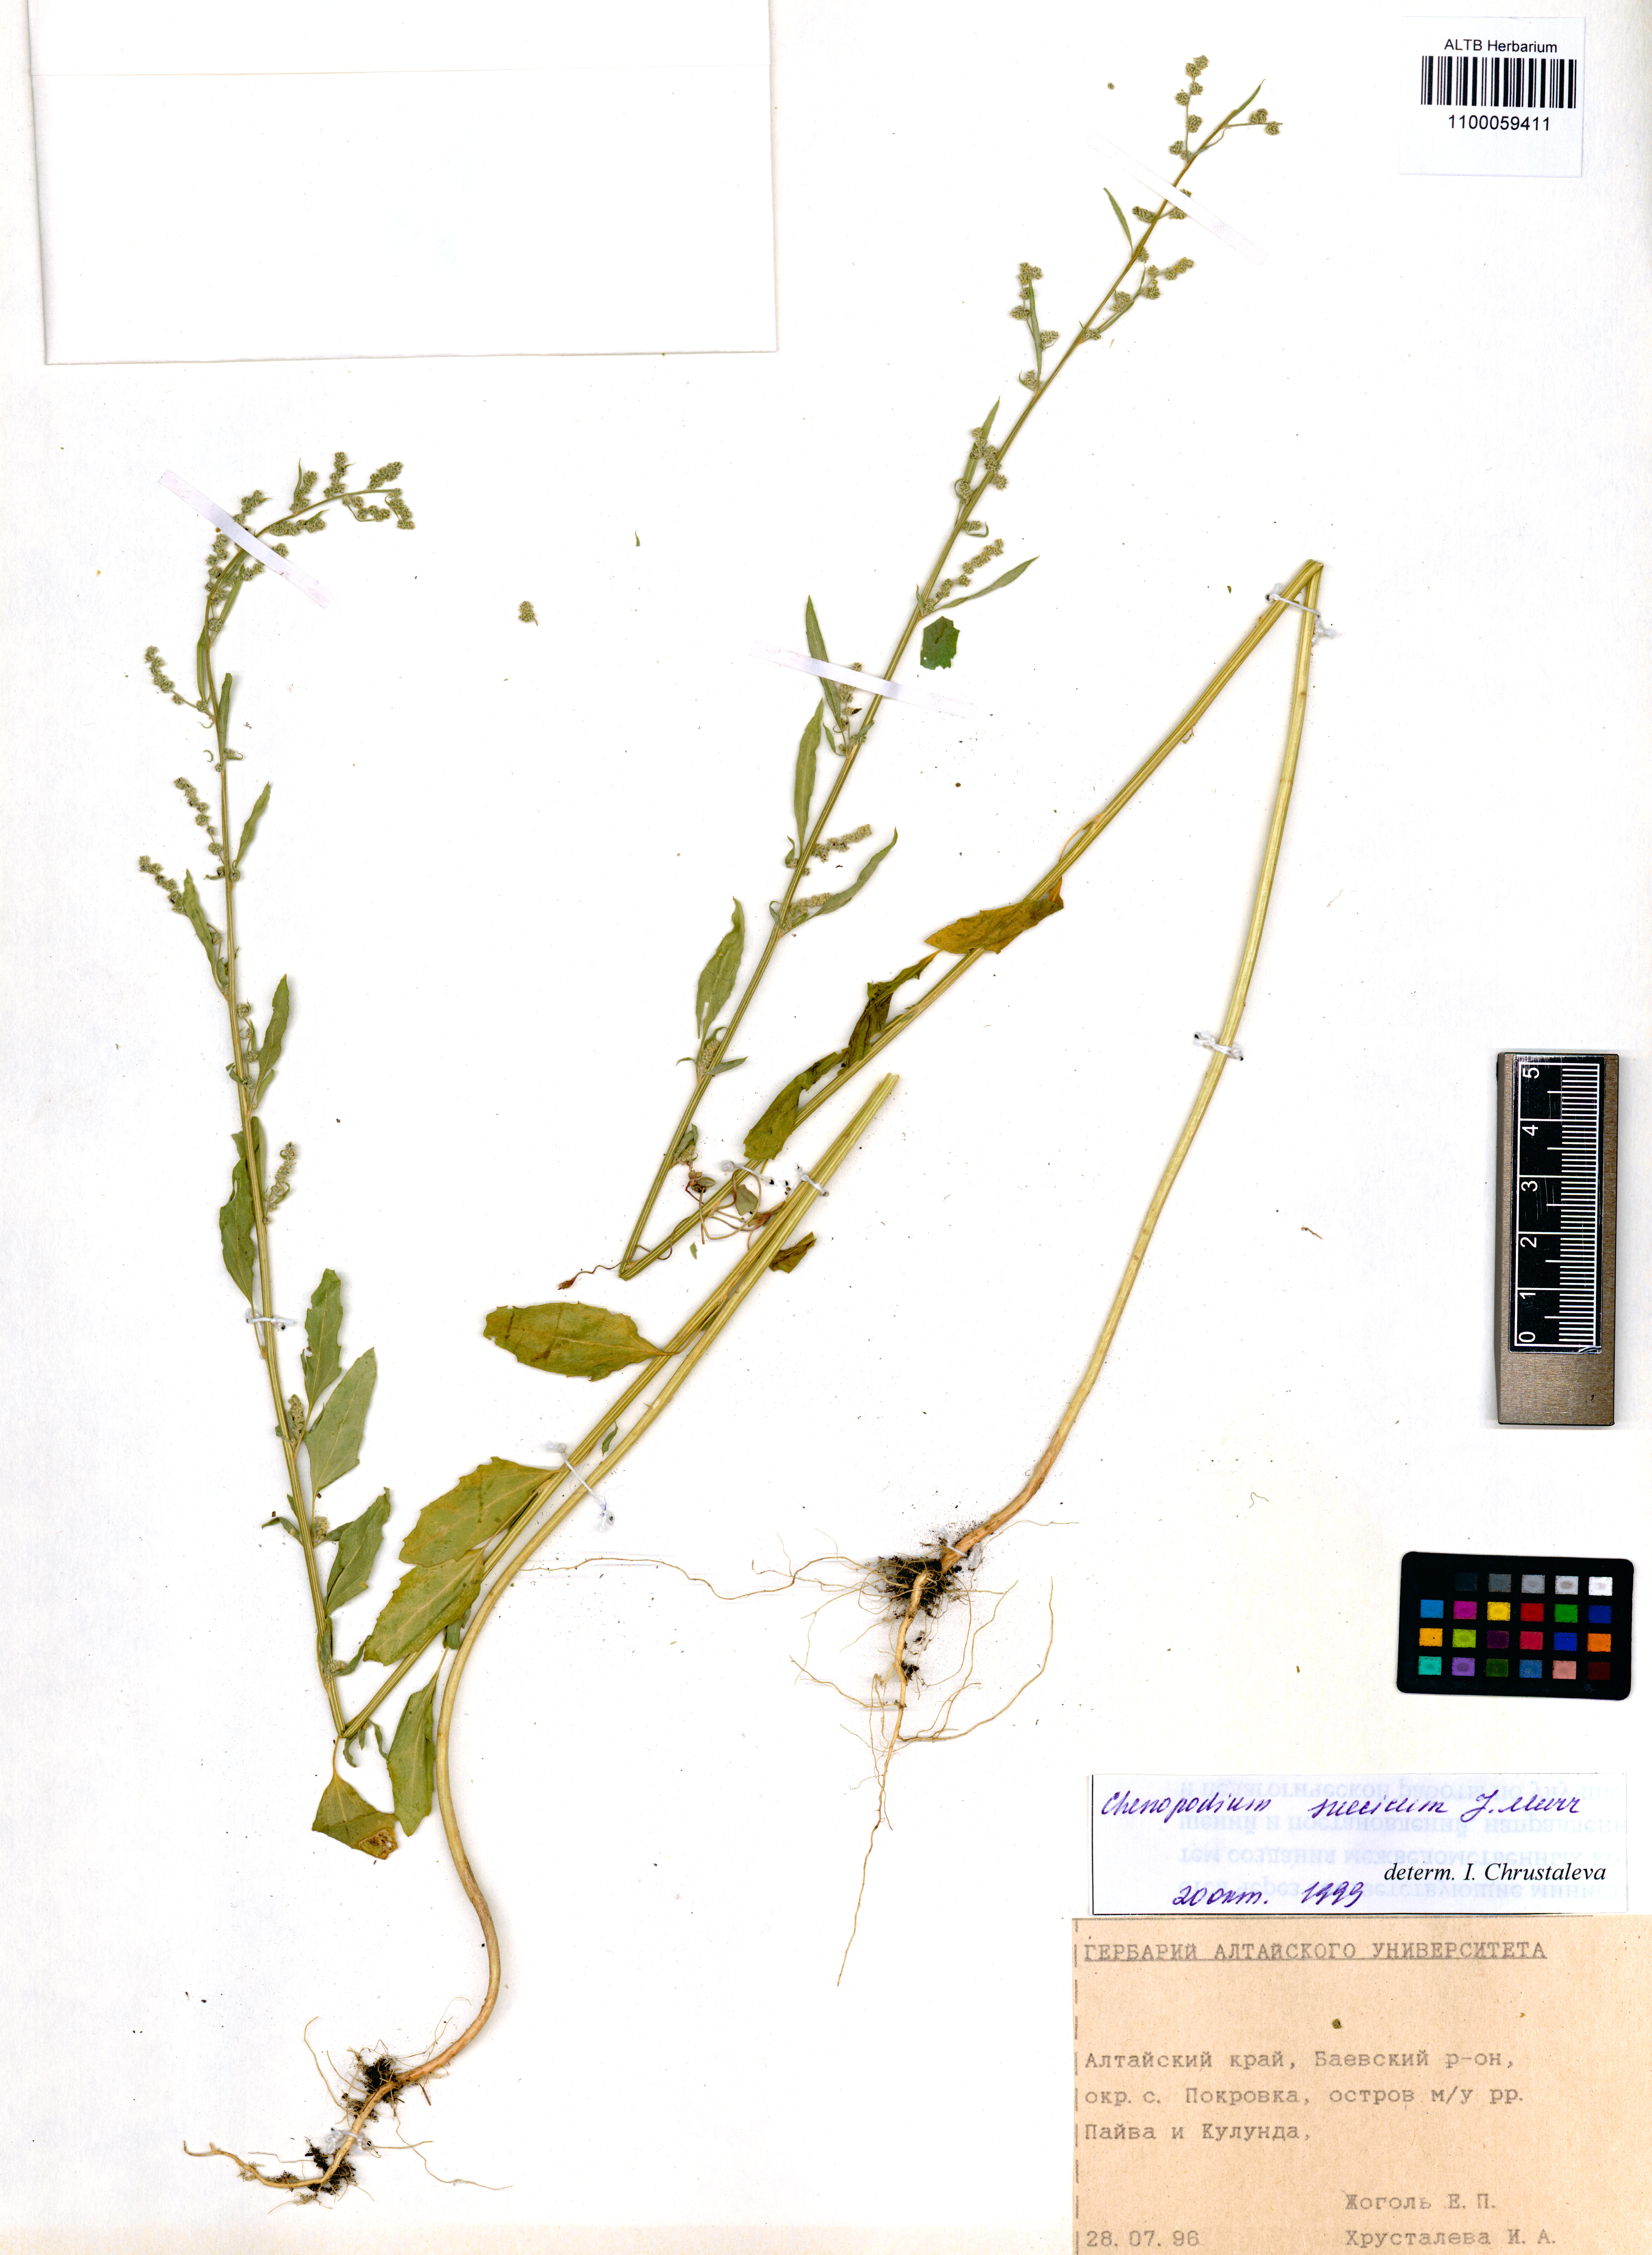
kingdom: Plantae
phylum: Tracheophyta
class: Magnoliopsida
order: Caryophyllales
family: Amaranthaceae
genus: Chenopodium
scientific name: Chenopodium suecicum
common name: Swedish goosefoot
